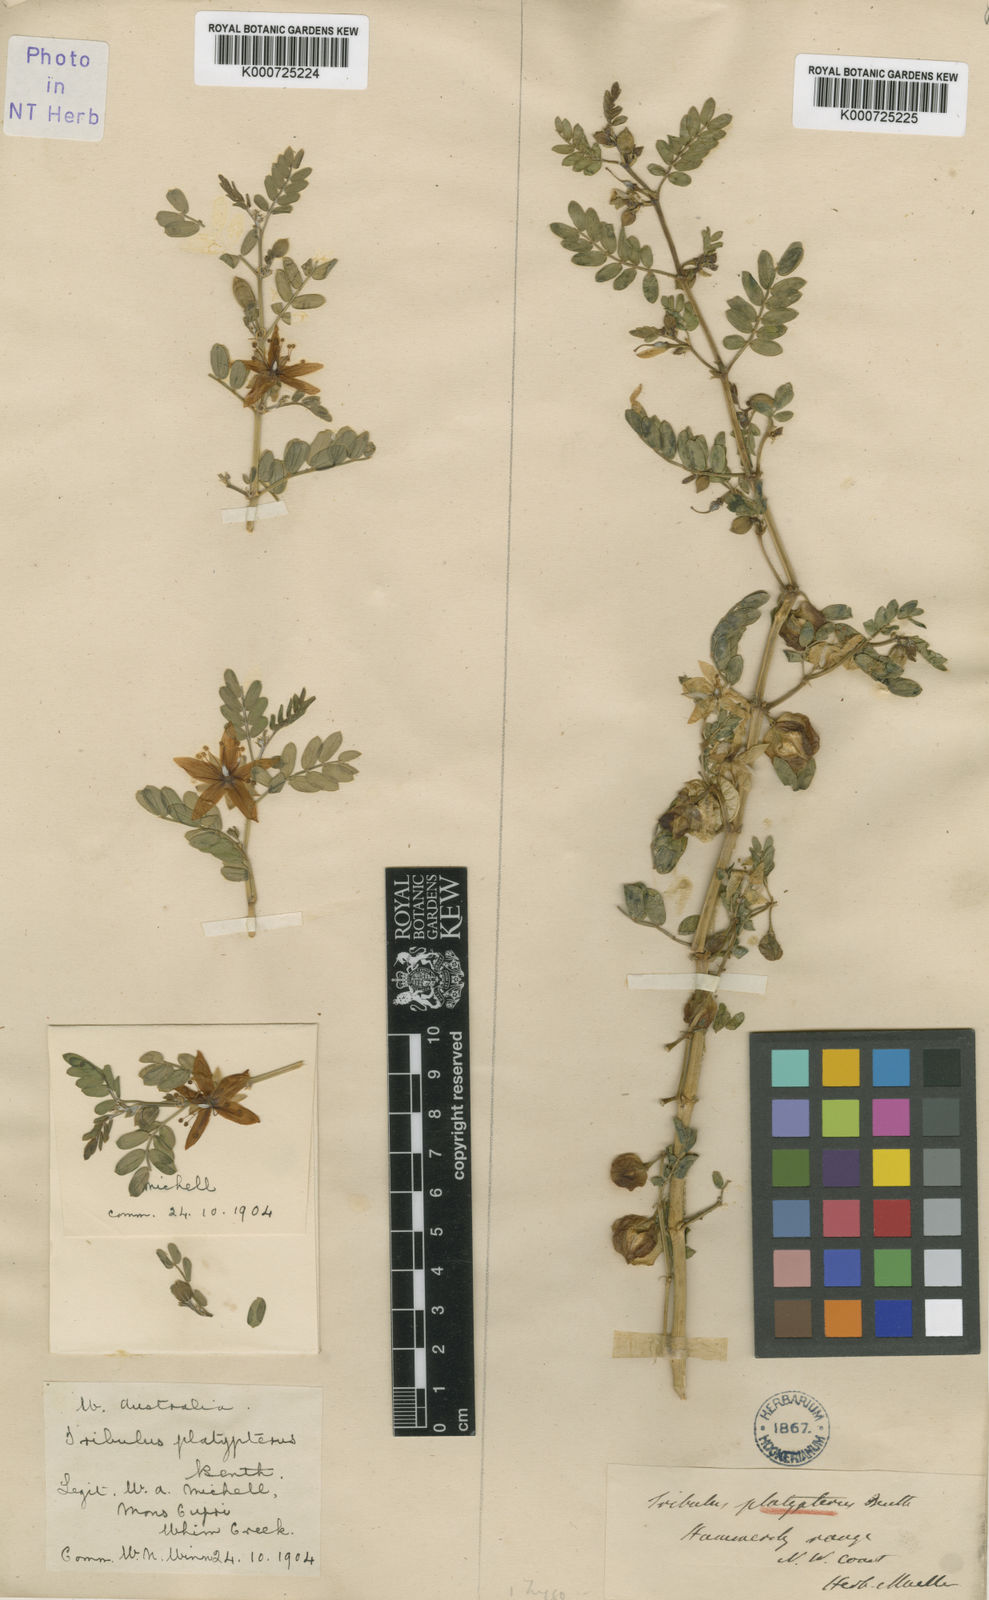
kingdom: Plantae
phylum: Tracheophyta
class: Magnoliopsida
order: Zygophyllales
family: Zygophyllaceae
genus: Tribulus
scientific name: Tribulus platypterus
